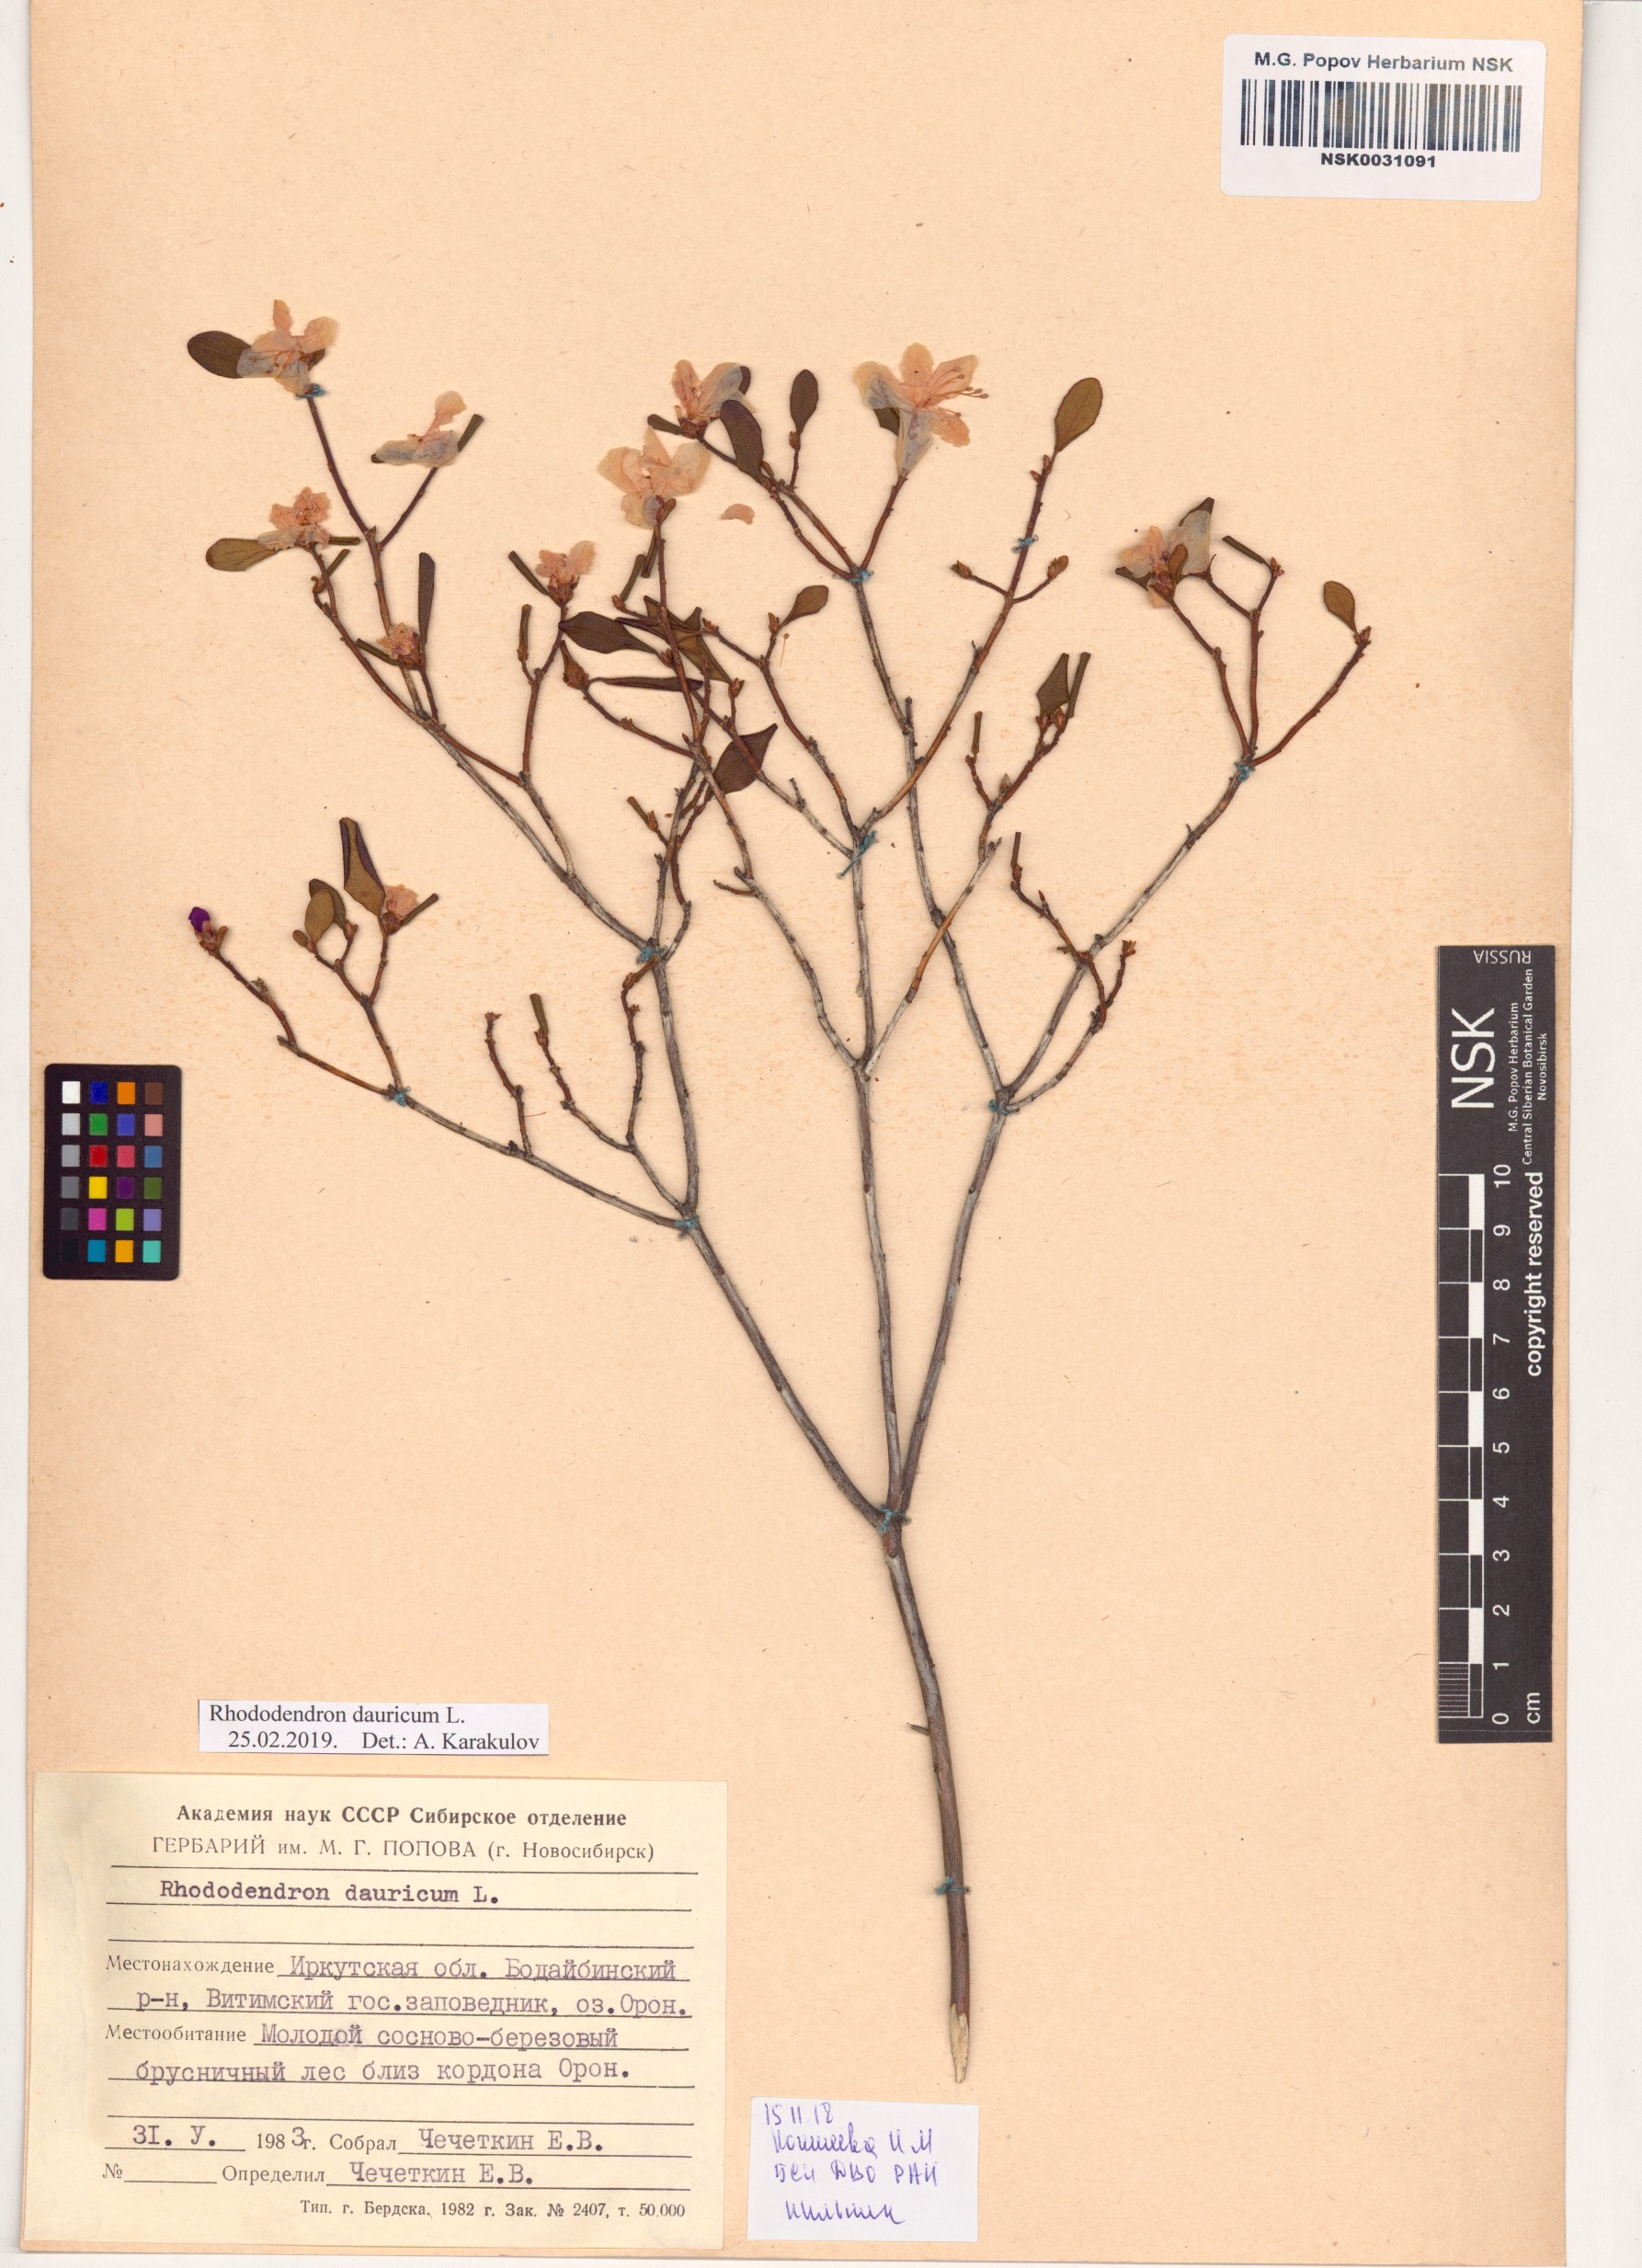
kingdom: Plantae
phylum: Tracheophyta
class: Magnoliopsida
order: Ericales
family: Ericaceae
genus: Rhododendron
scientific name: Rhododendron dauricum
